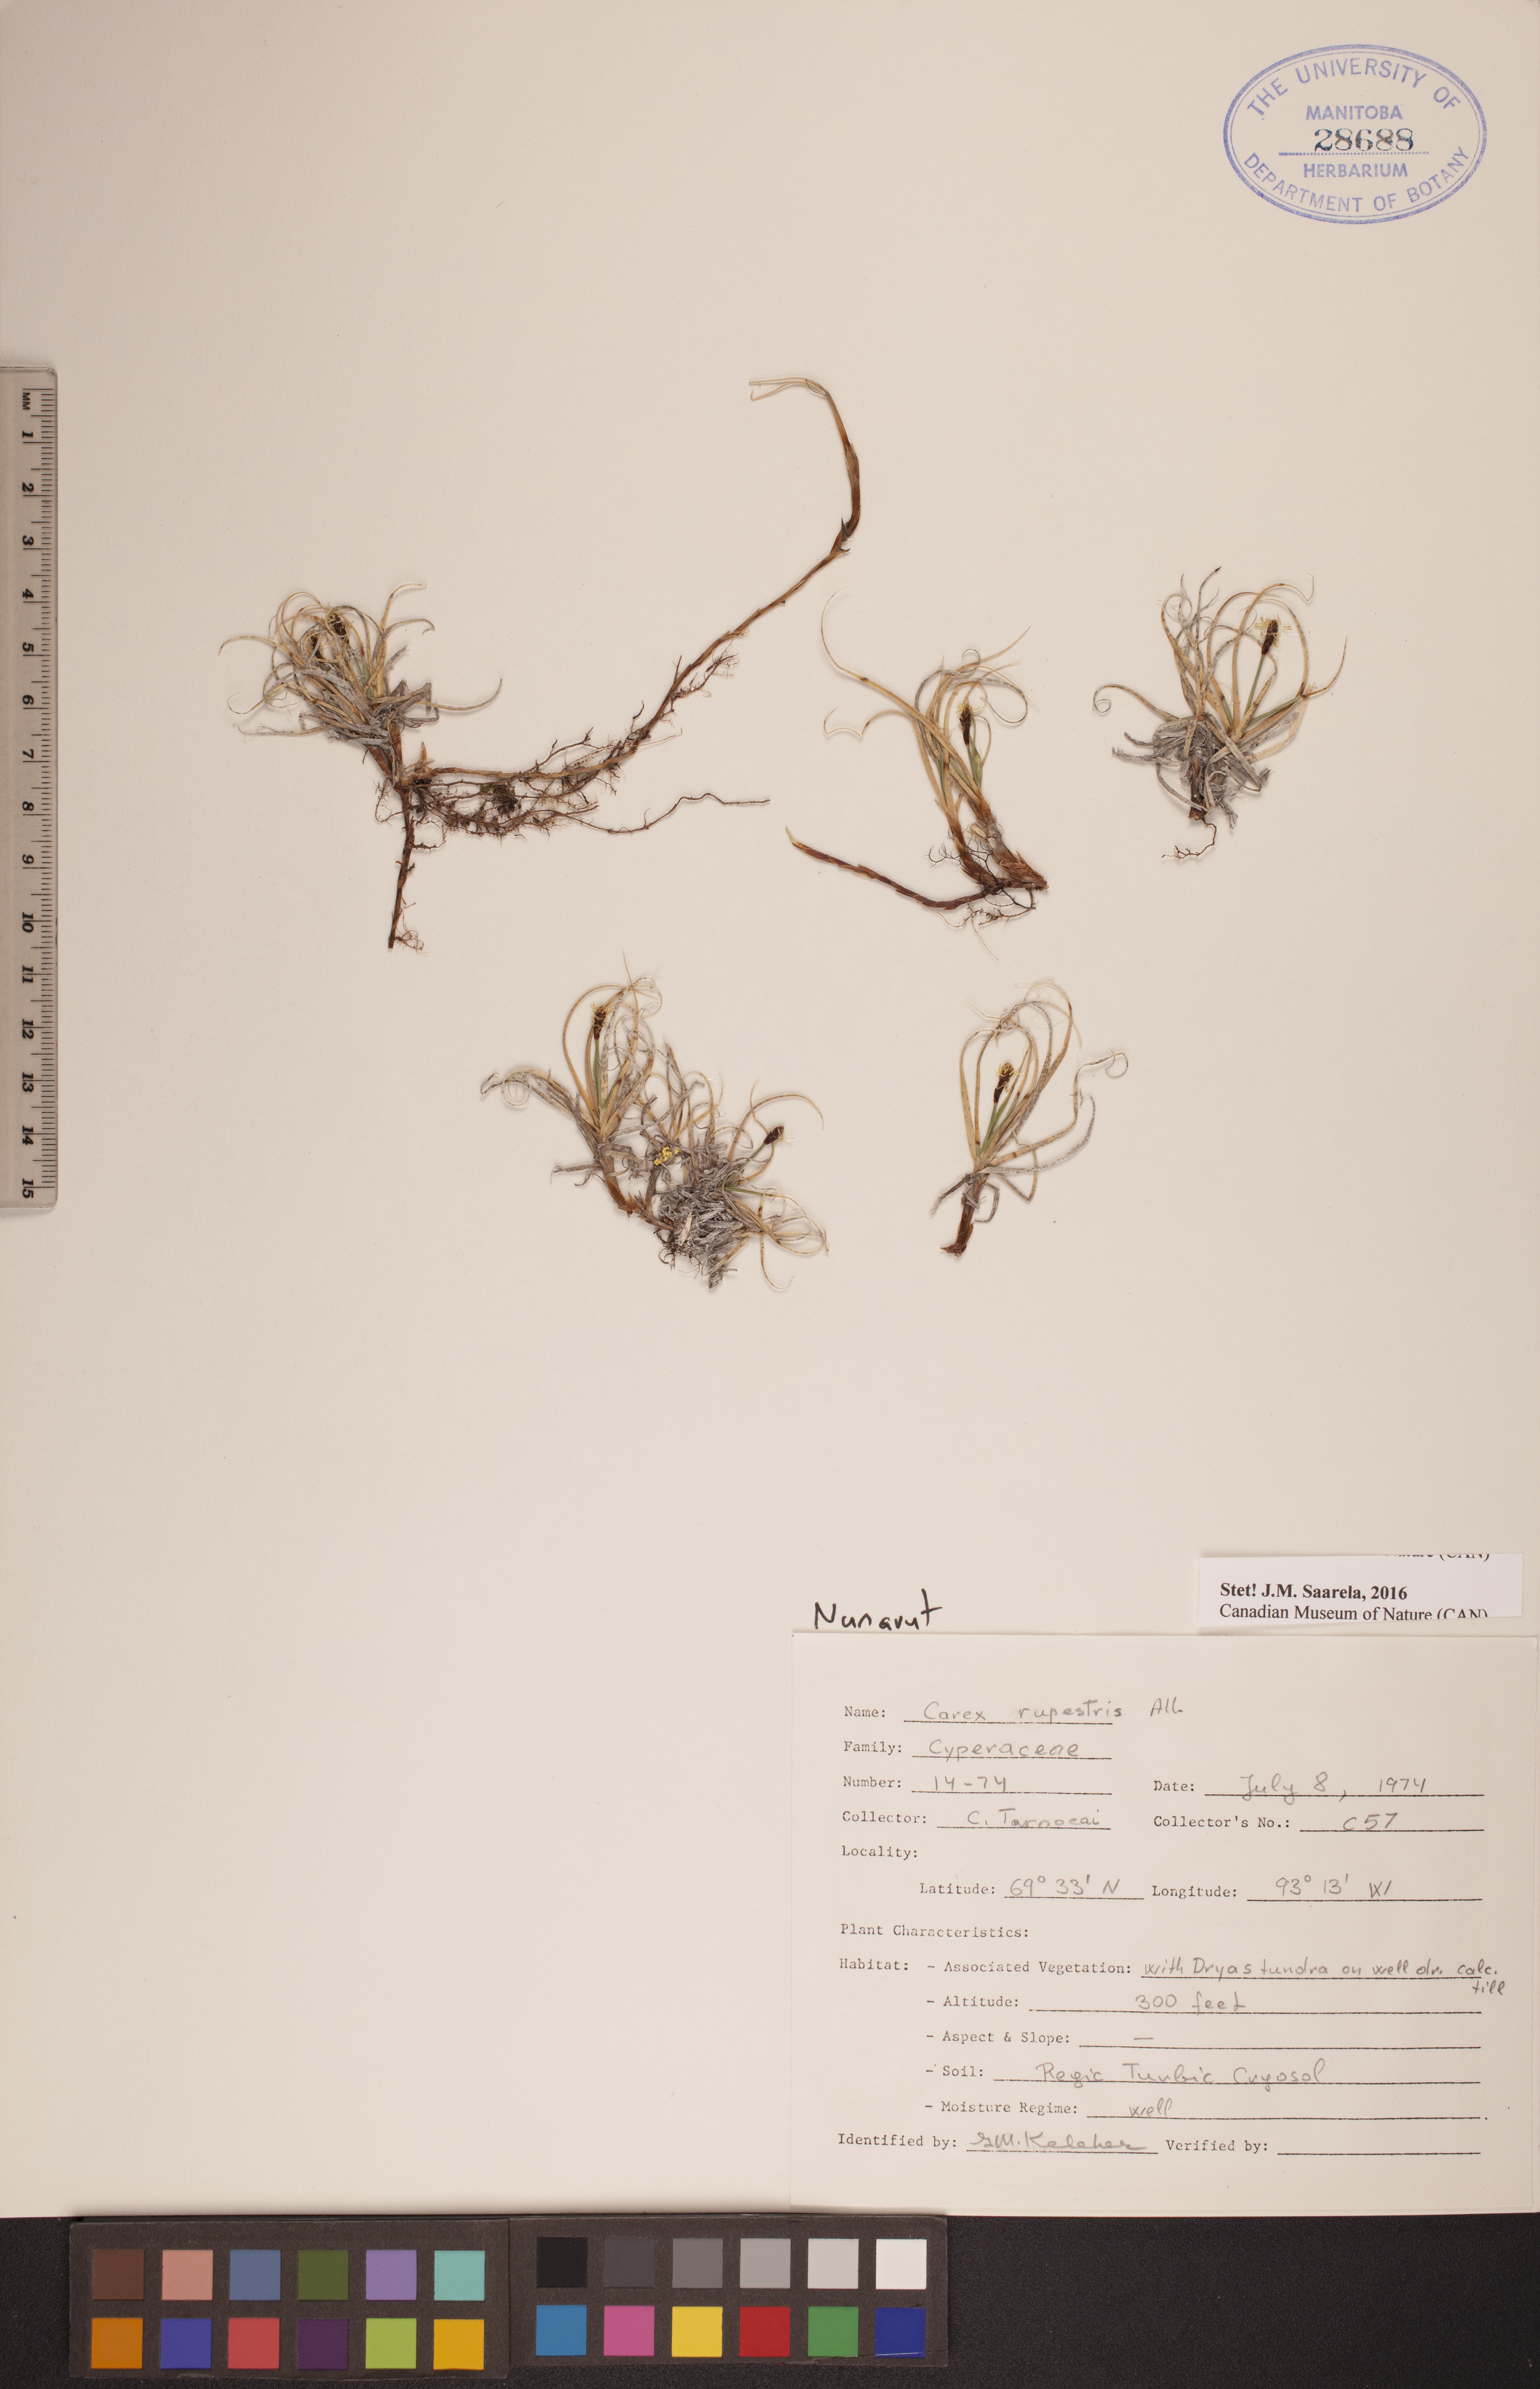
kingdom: Plantae
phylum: Tracheophyta
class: Liliopsida
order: Poales
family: Cyperaceae
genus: Carex
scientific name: Carex rupestris
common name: Rock sedge
